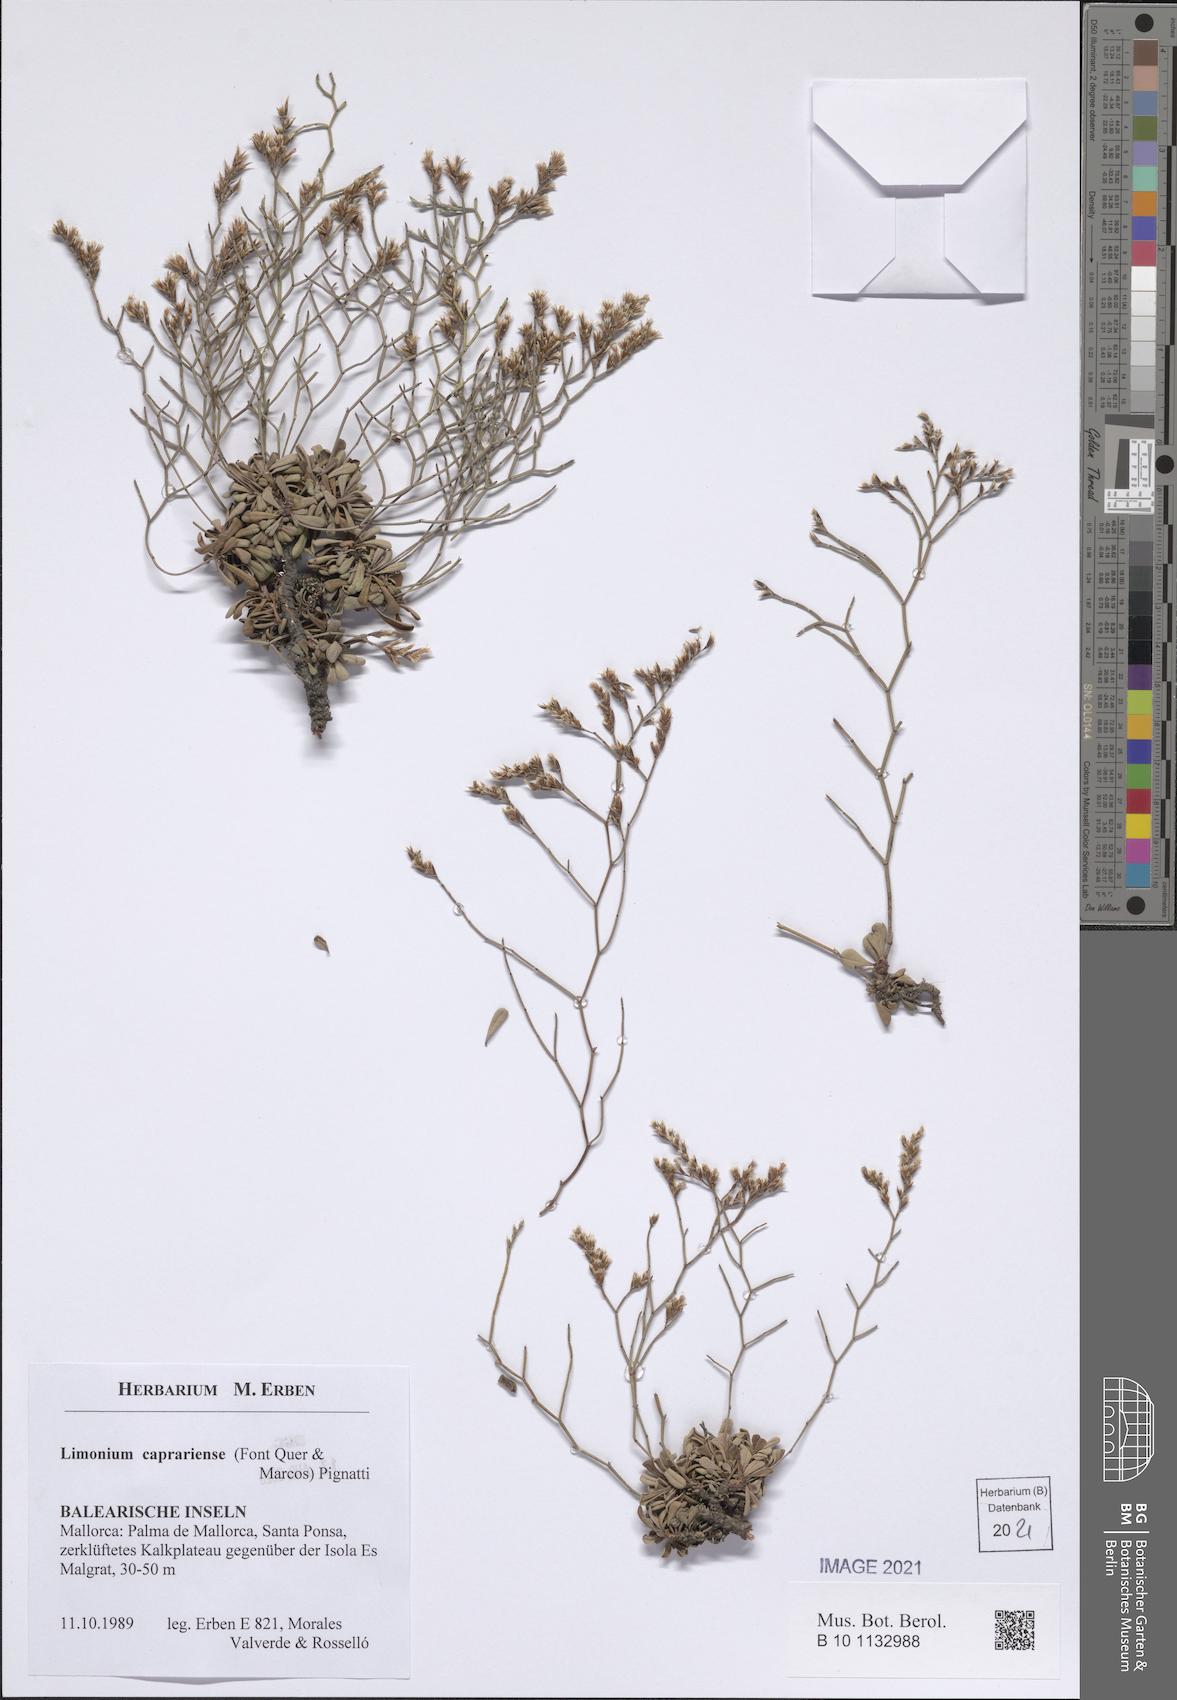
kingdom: Plantae
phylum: Tracheophyta
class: Magnoliopsida
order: Caryophyllales
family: Plumbaginaceae
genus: Limonium
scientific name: Limonium caprariense
